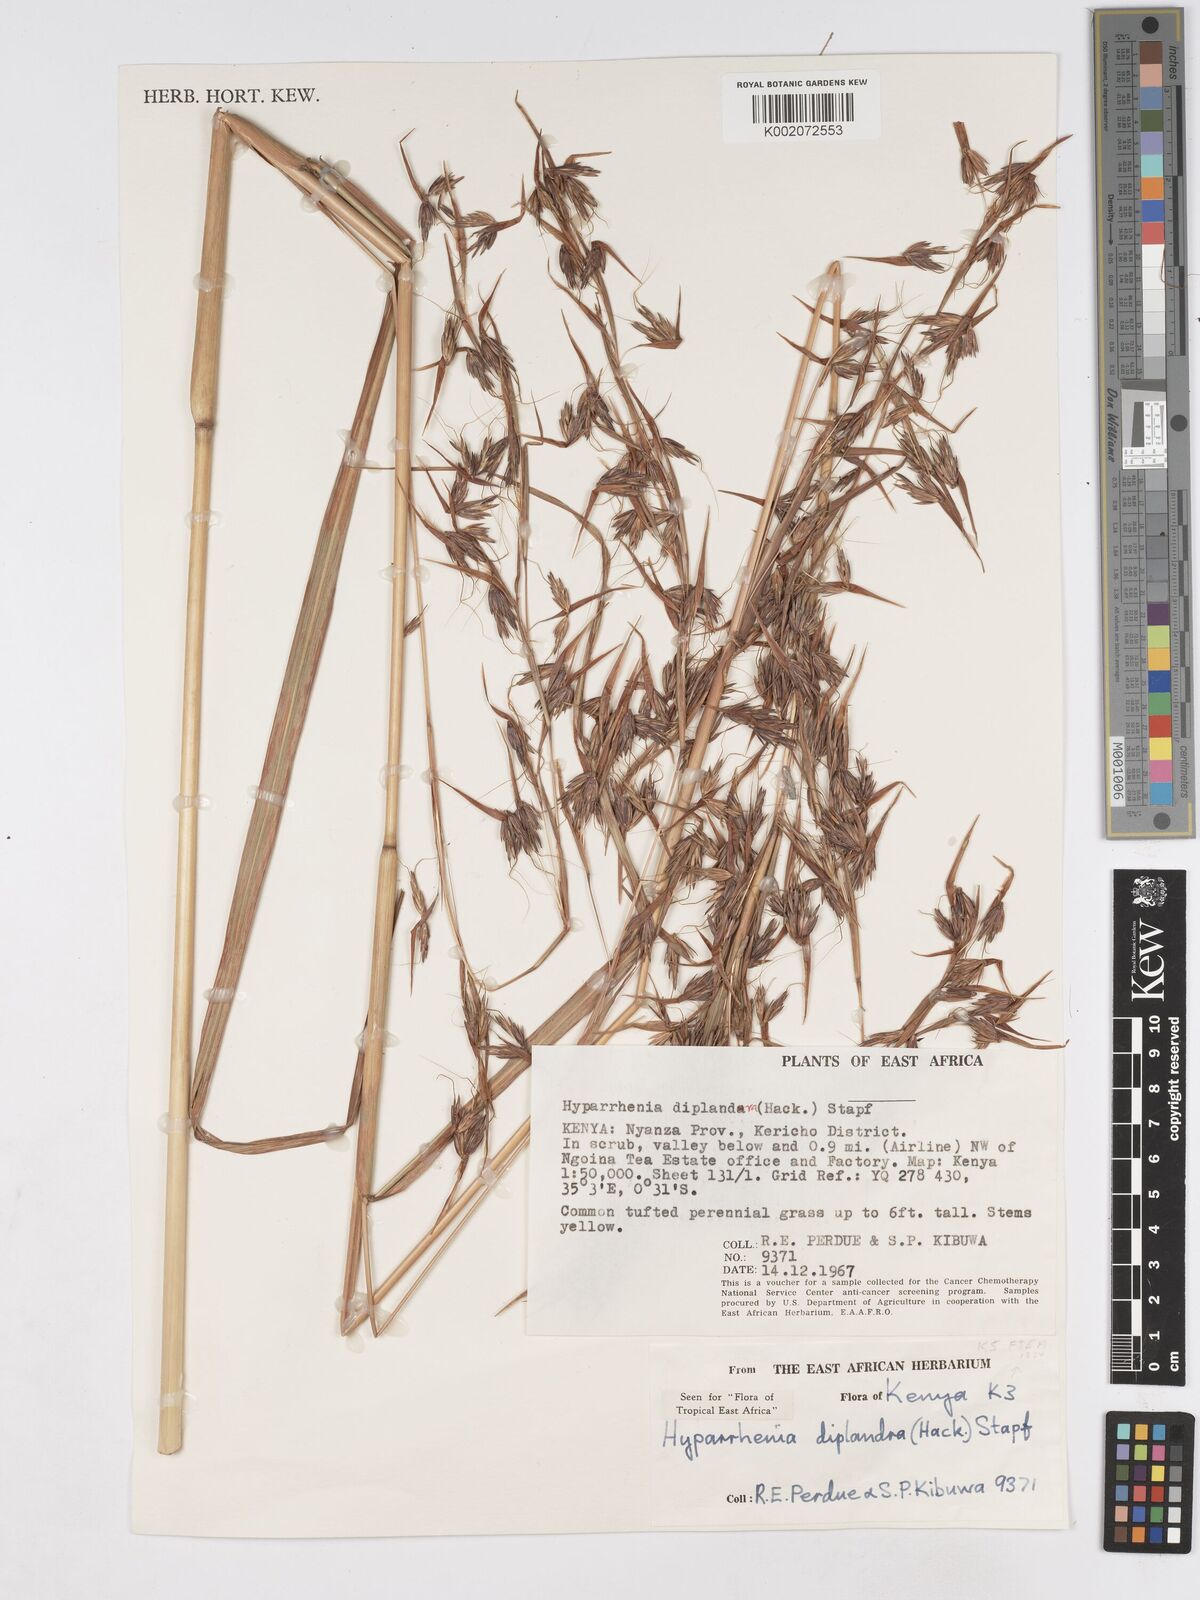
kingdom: Plantae
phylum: Tracheophyta
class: Liliopsida
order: Poales
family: Poaceae
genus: Hyparrhenia
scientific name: Hyparrhenia diplandra
